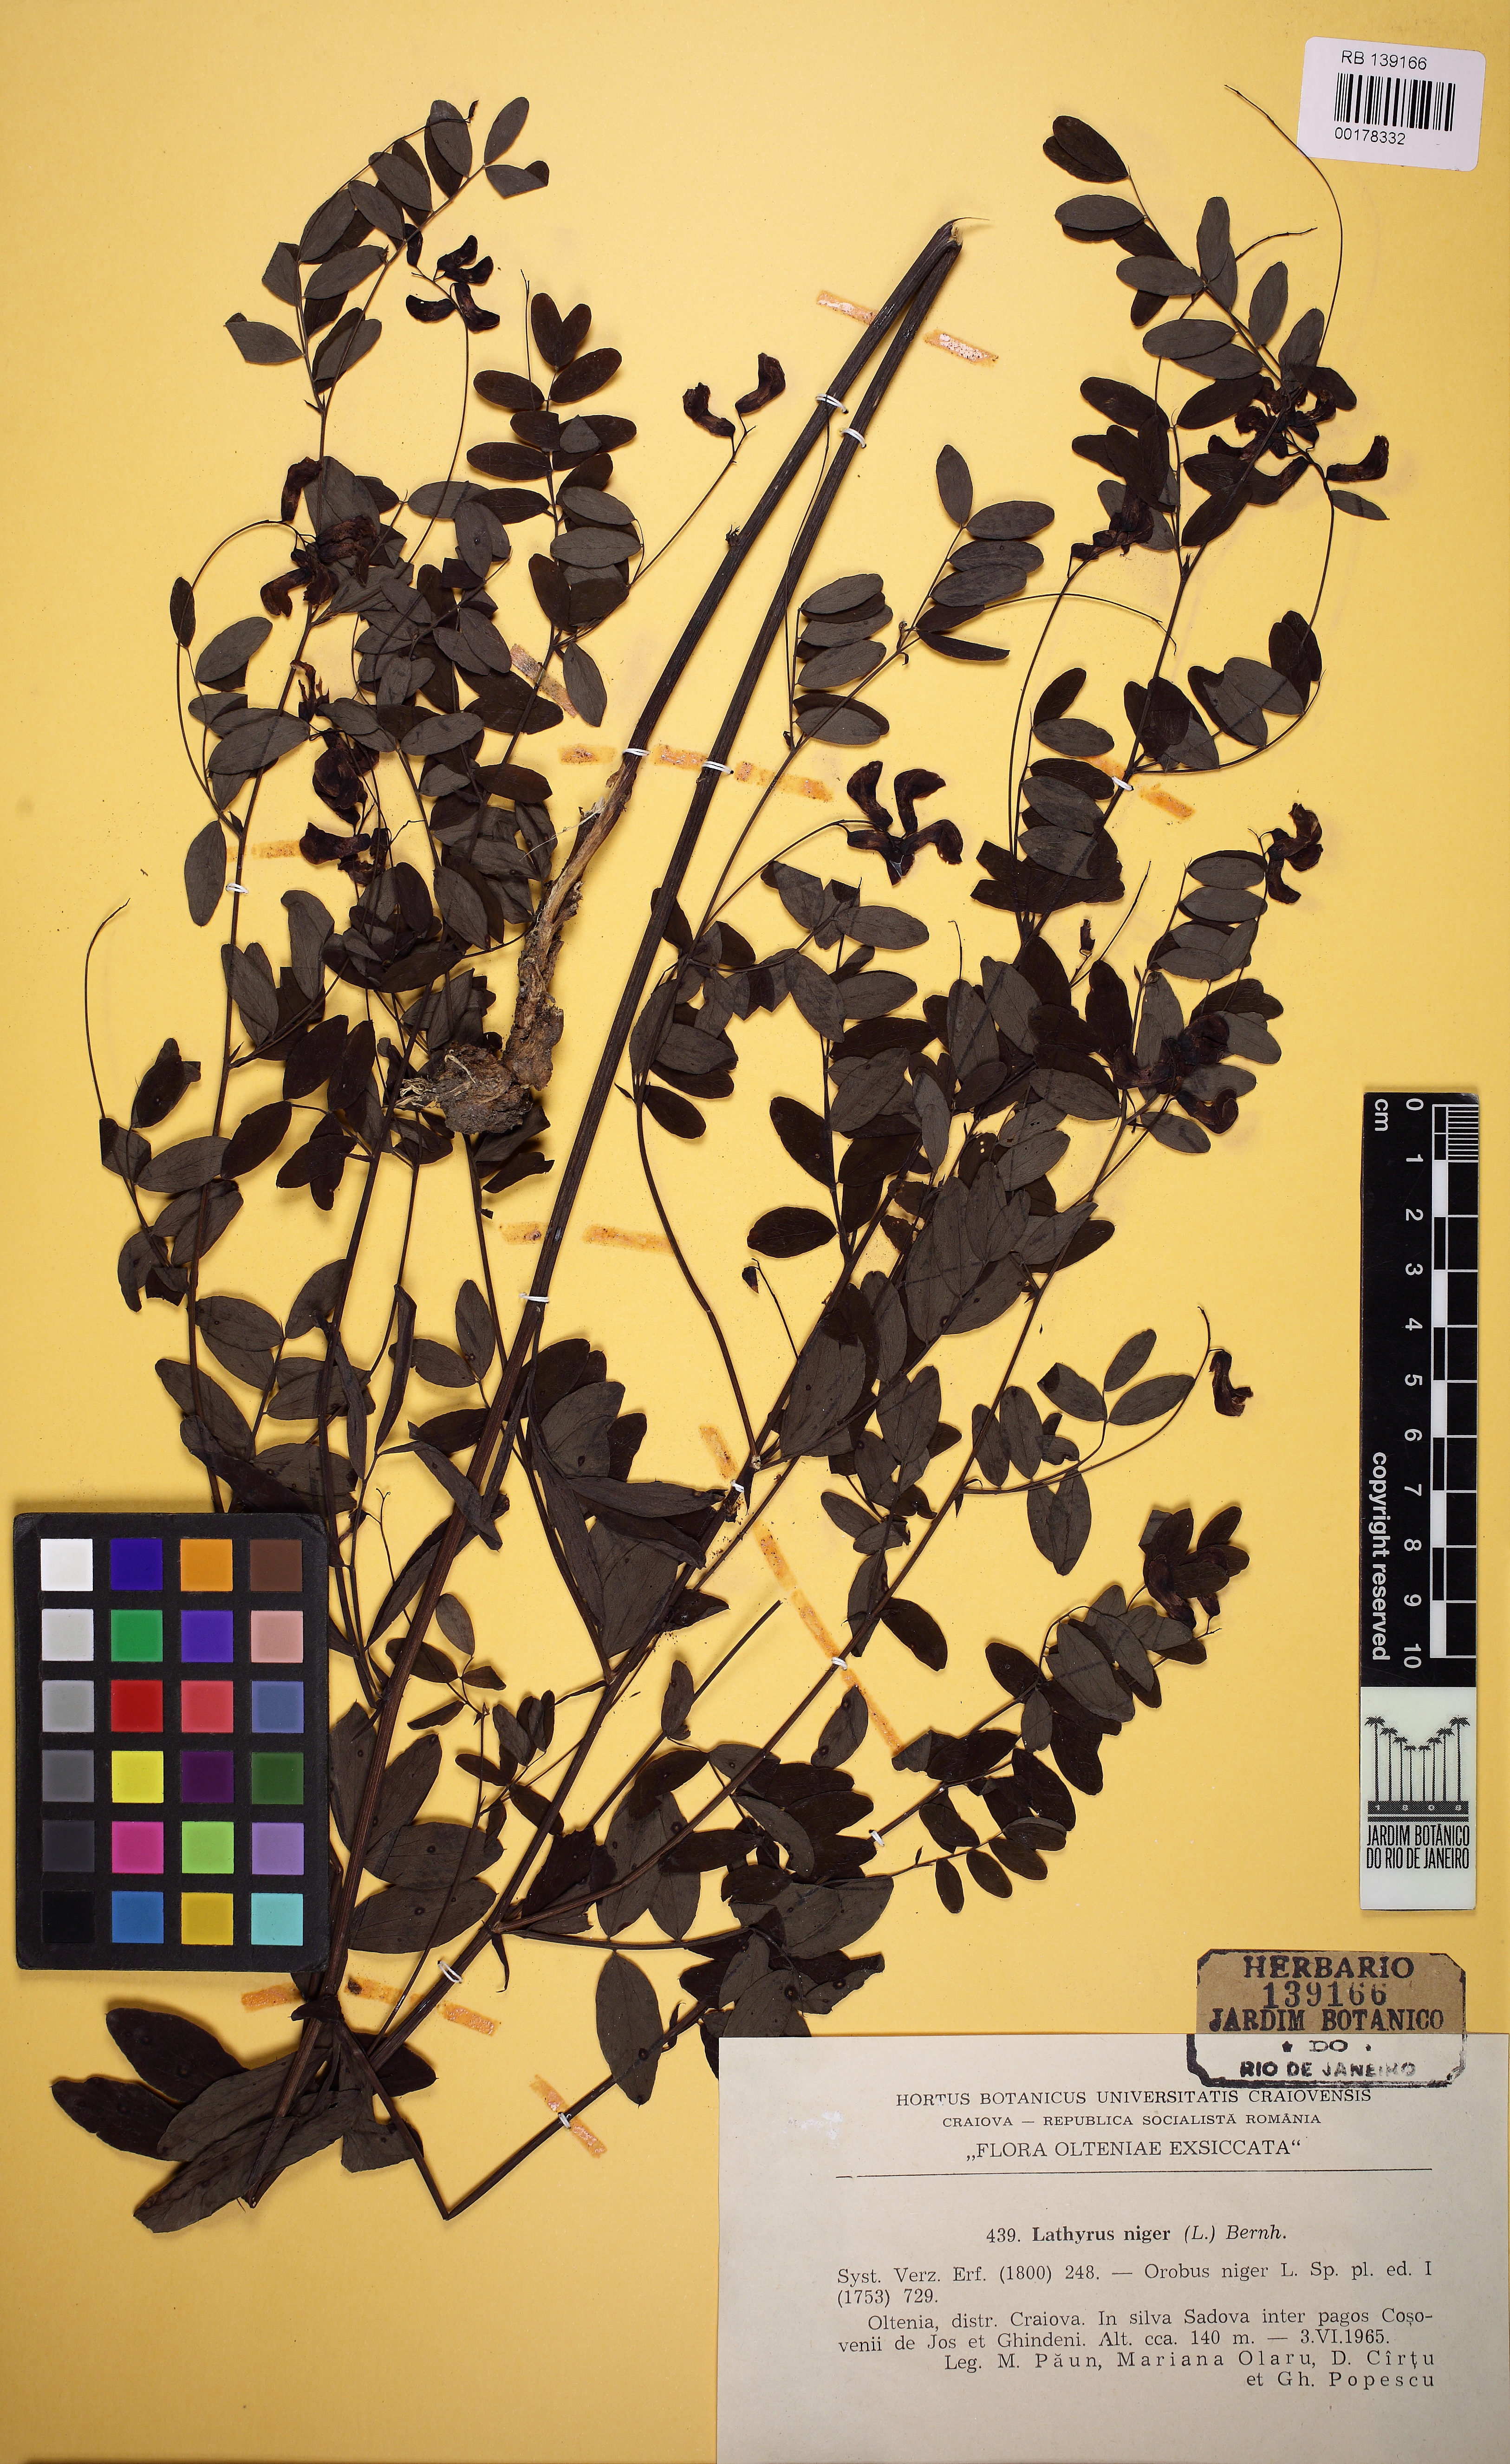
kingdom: Plantae
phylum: Tracheophyta
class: Magnoliopsida
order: Fabales
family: Fabaceae
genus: Lathyrus
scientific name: Lathyrus niger
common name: Black pea
